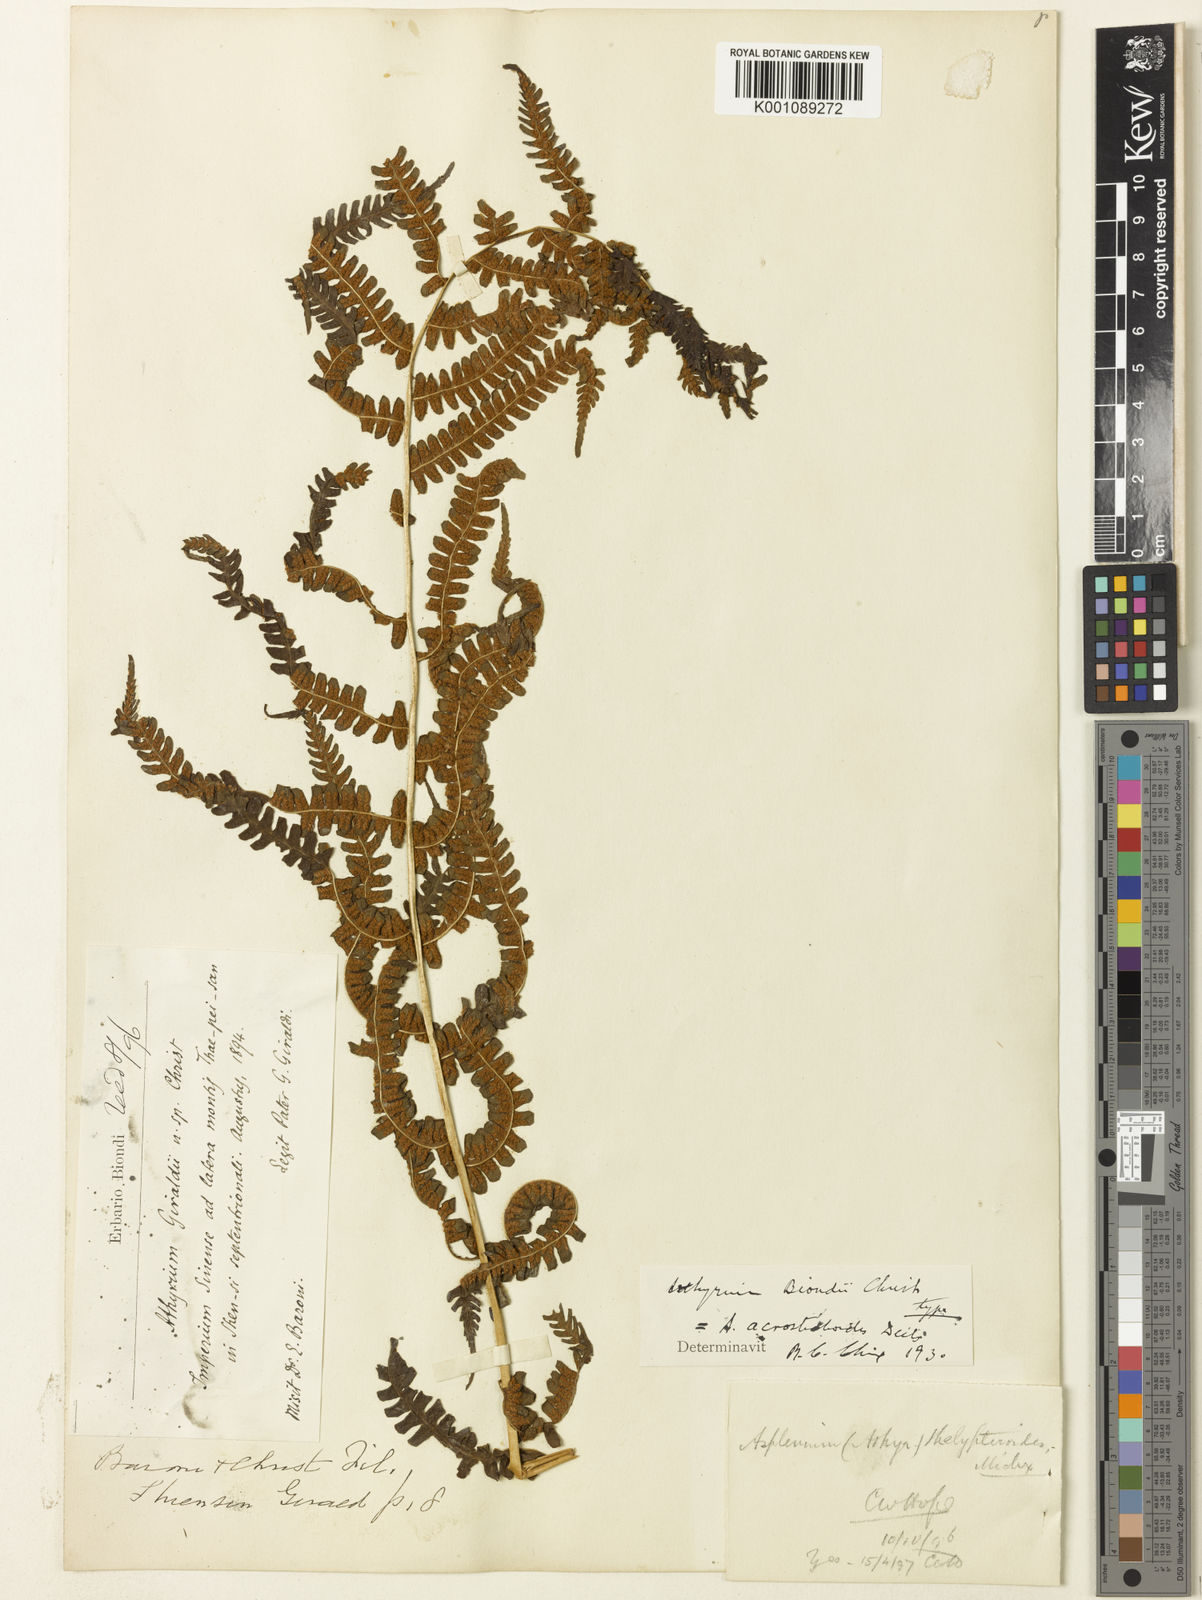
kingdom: Plantae
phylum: Tracheophyta
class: Polypodiopsida
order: Polypodiales
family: Athyriaceae
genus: Anisocampium
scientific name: Anisocampium niponicum
